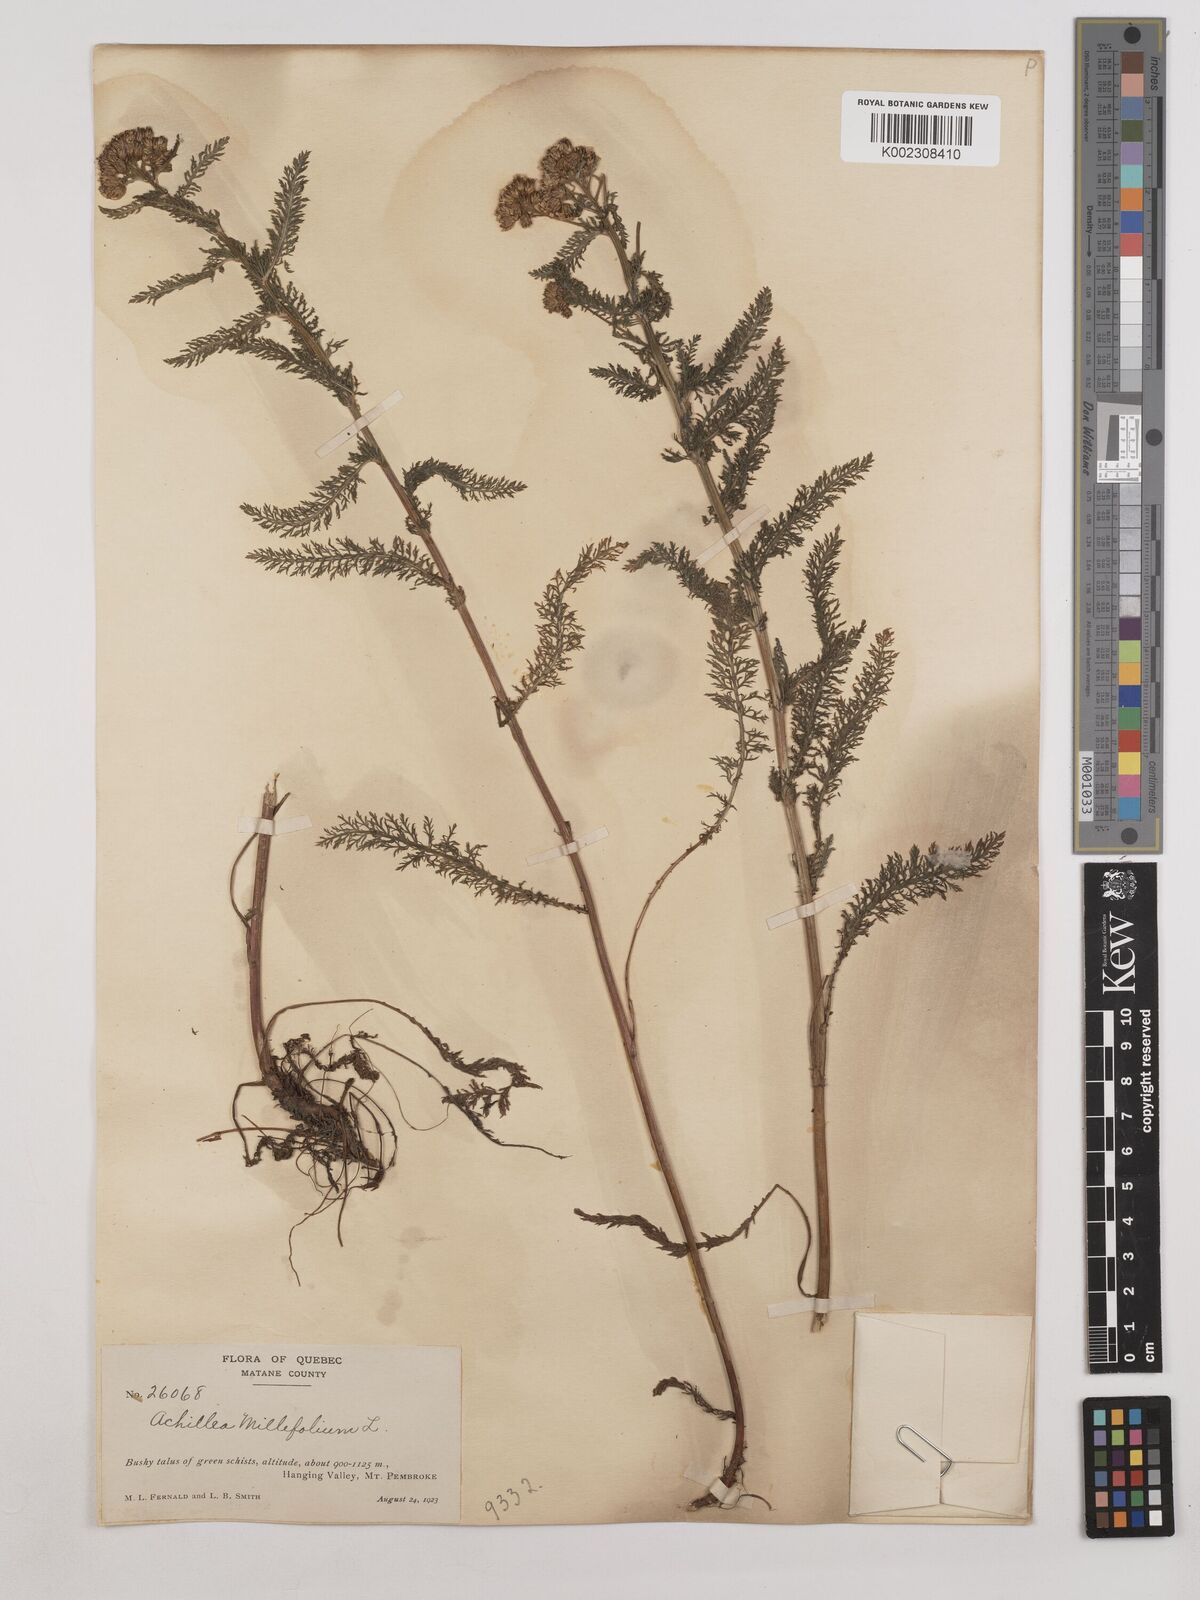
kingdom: Plantae
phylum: Tracheophyta
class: Magnoliopsida
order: Asterales
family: Asteraceae
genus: Achillea
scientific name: Achillea millefolium
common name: Yarrow
